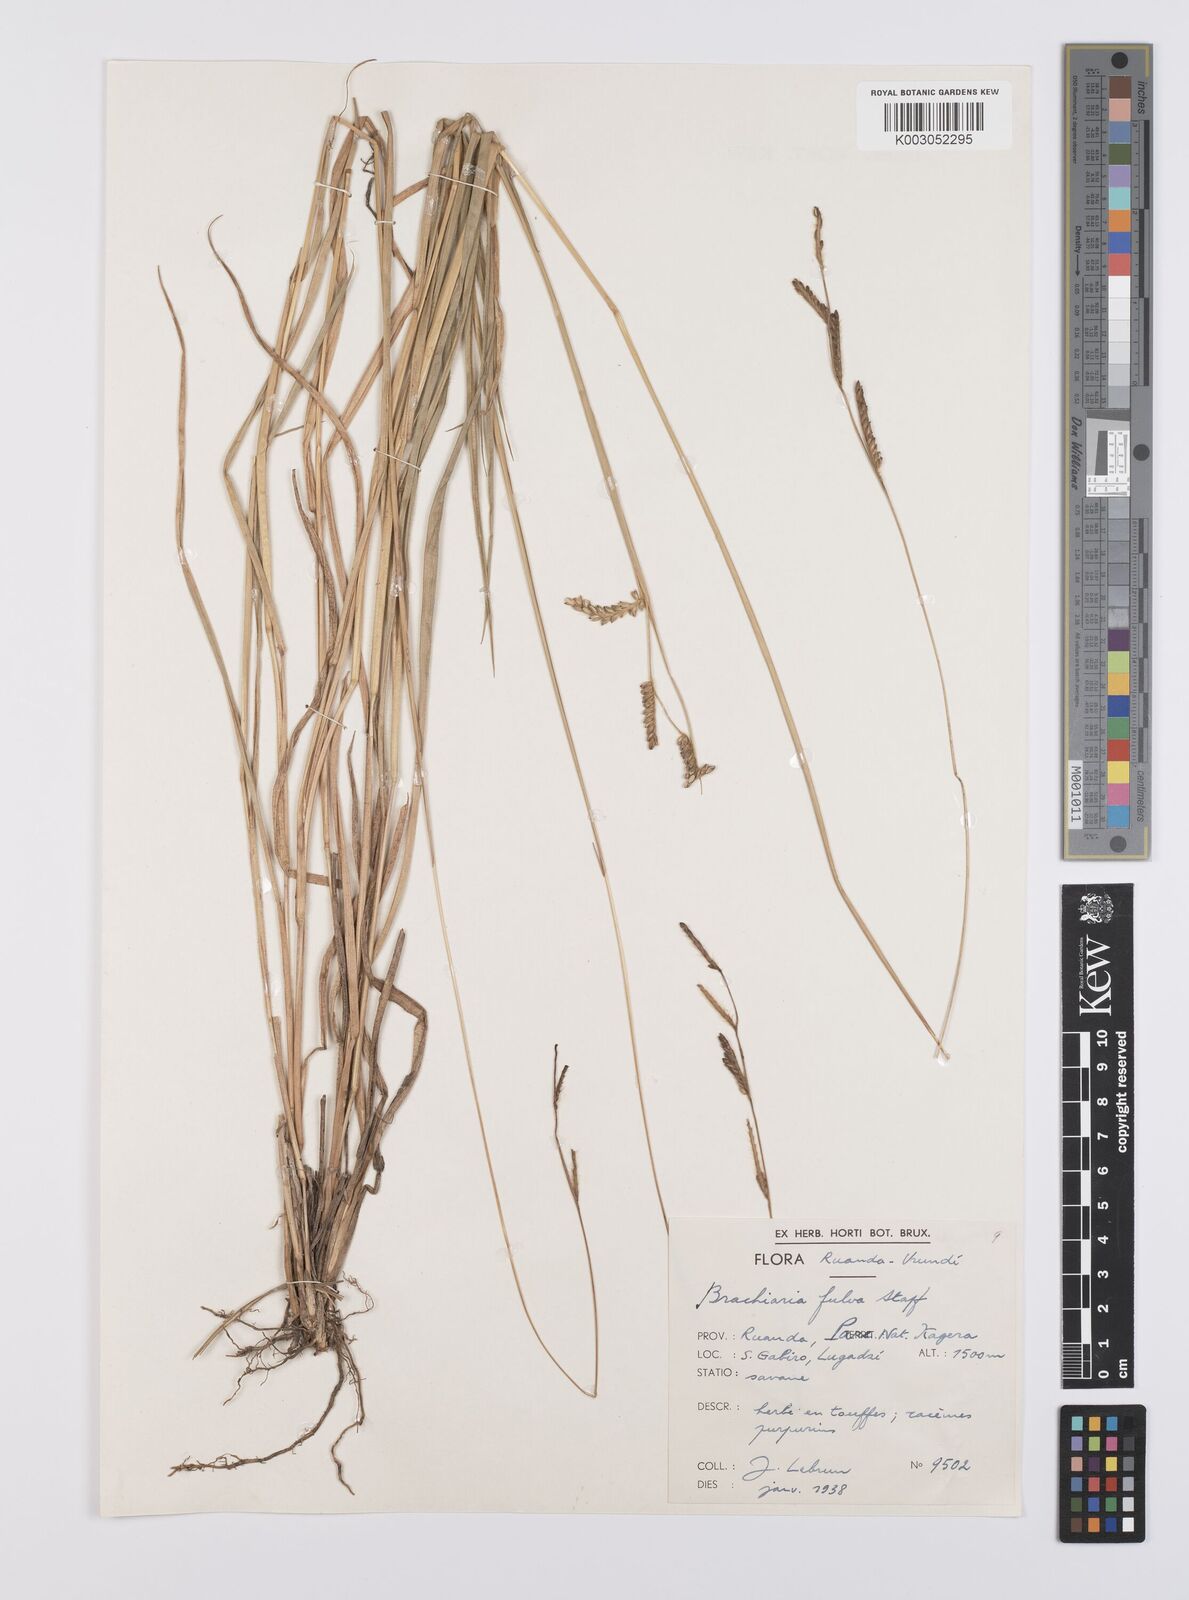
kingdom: Plantae
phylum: Tracheophyta
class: Liliopsida
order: Poales
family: Poaceae
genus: Urochloa
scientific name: Urochloa jubata
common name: Buffalograss
